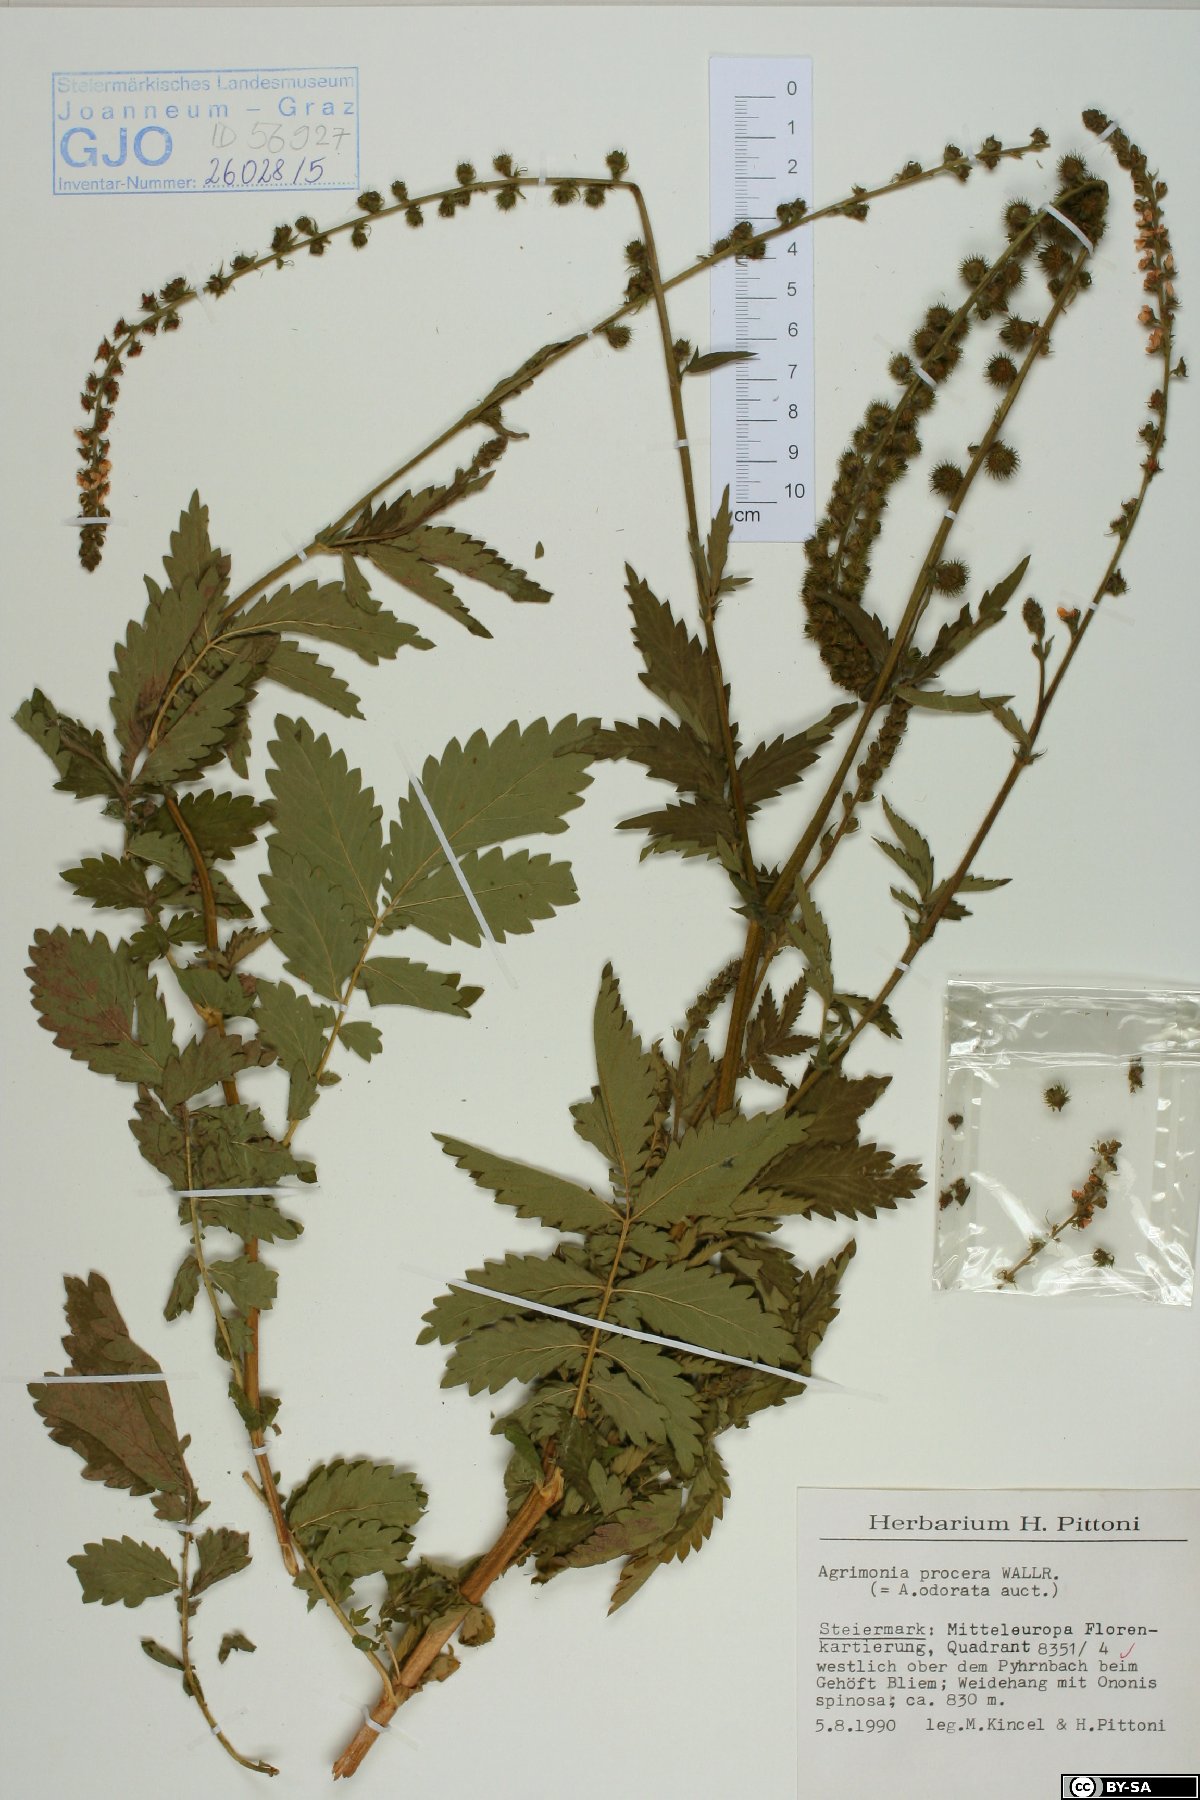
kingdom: Plantae
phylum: Tracheophyta
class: Magnoliopsida
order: Rosales
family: Rosaceae
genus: Agrimonia
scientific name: Agrimonia procera
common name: Fragrant agrimony
